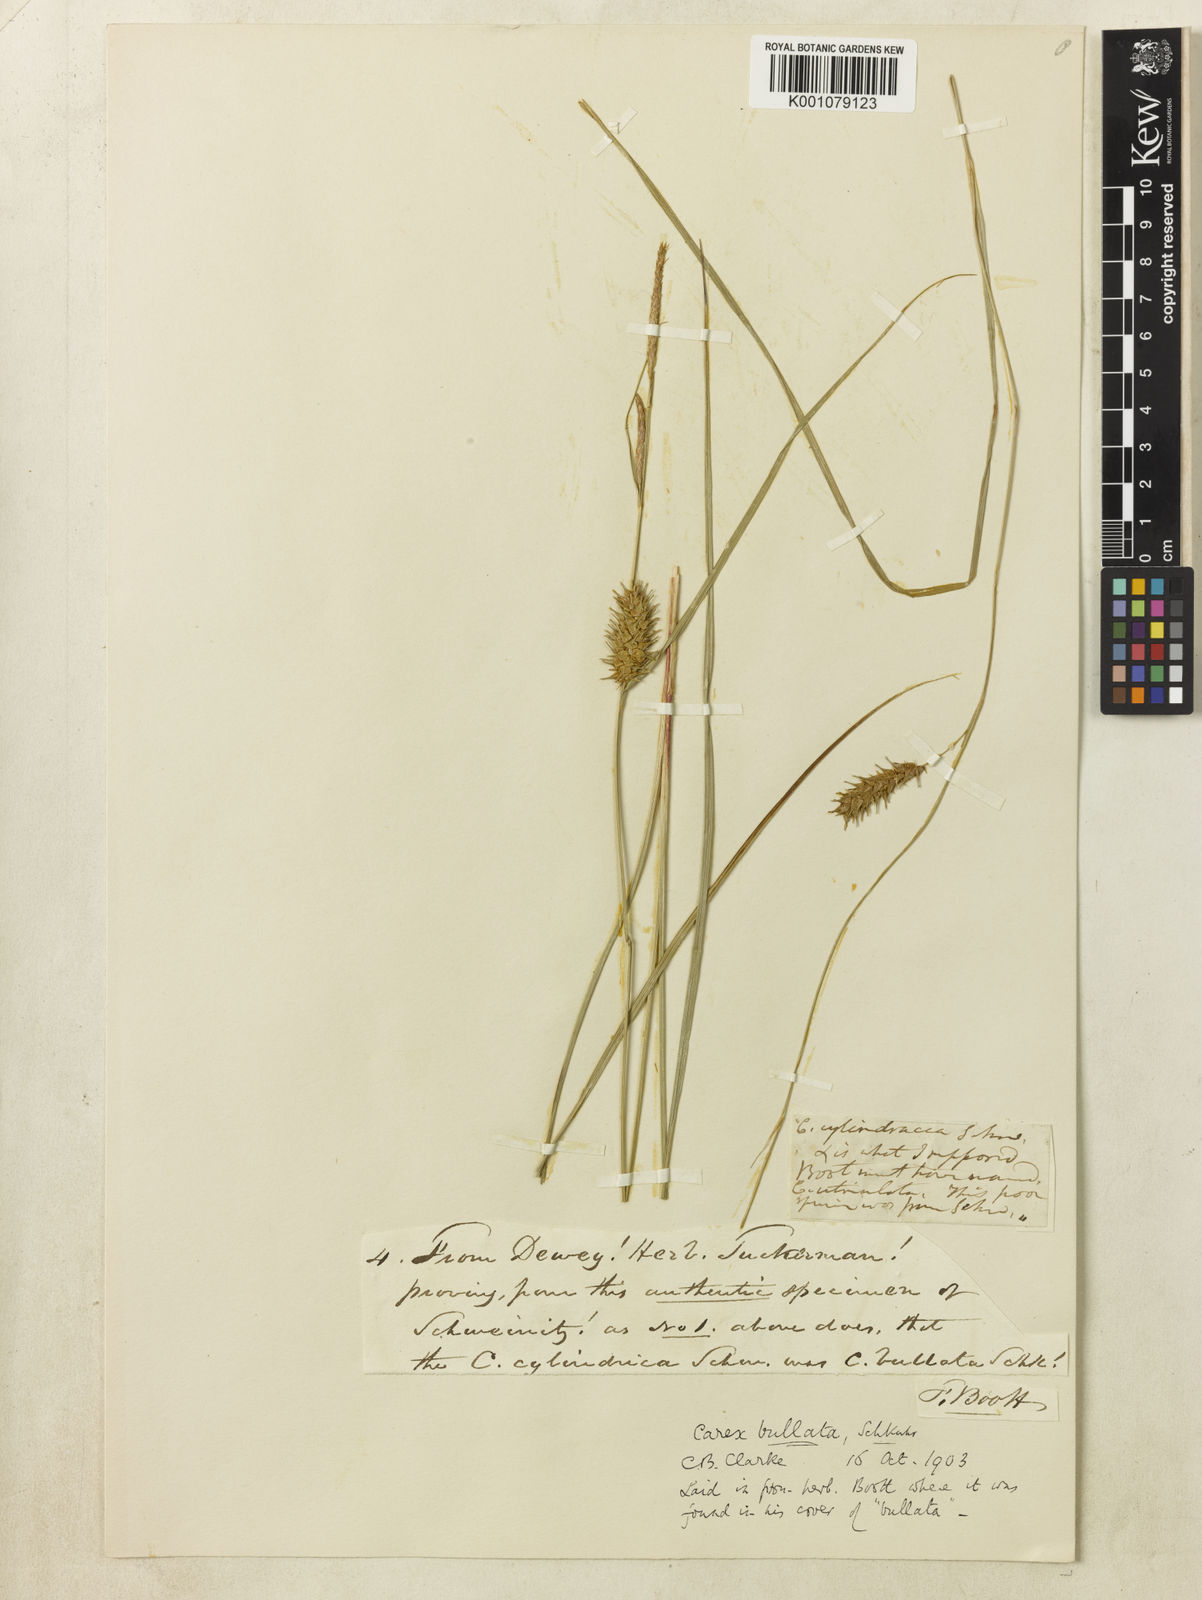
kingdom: Plantae
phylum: Tracheophyta
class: Liliopsida
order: Poales
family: Cyperaceae
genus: Carex
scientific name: Carex
